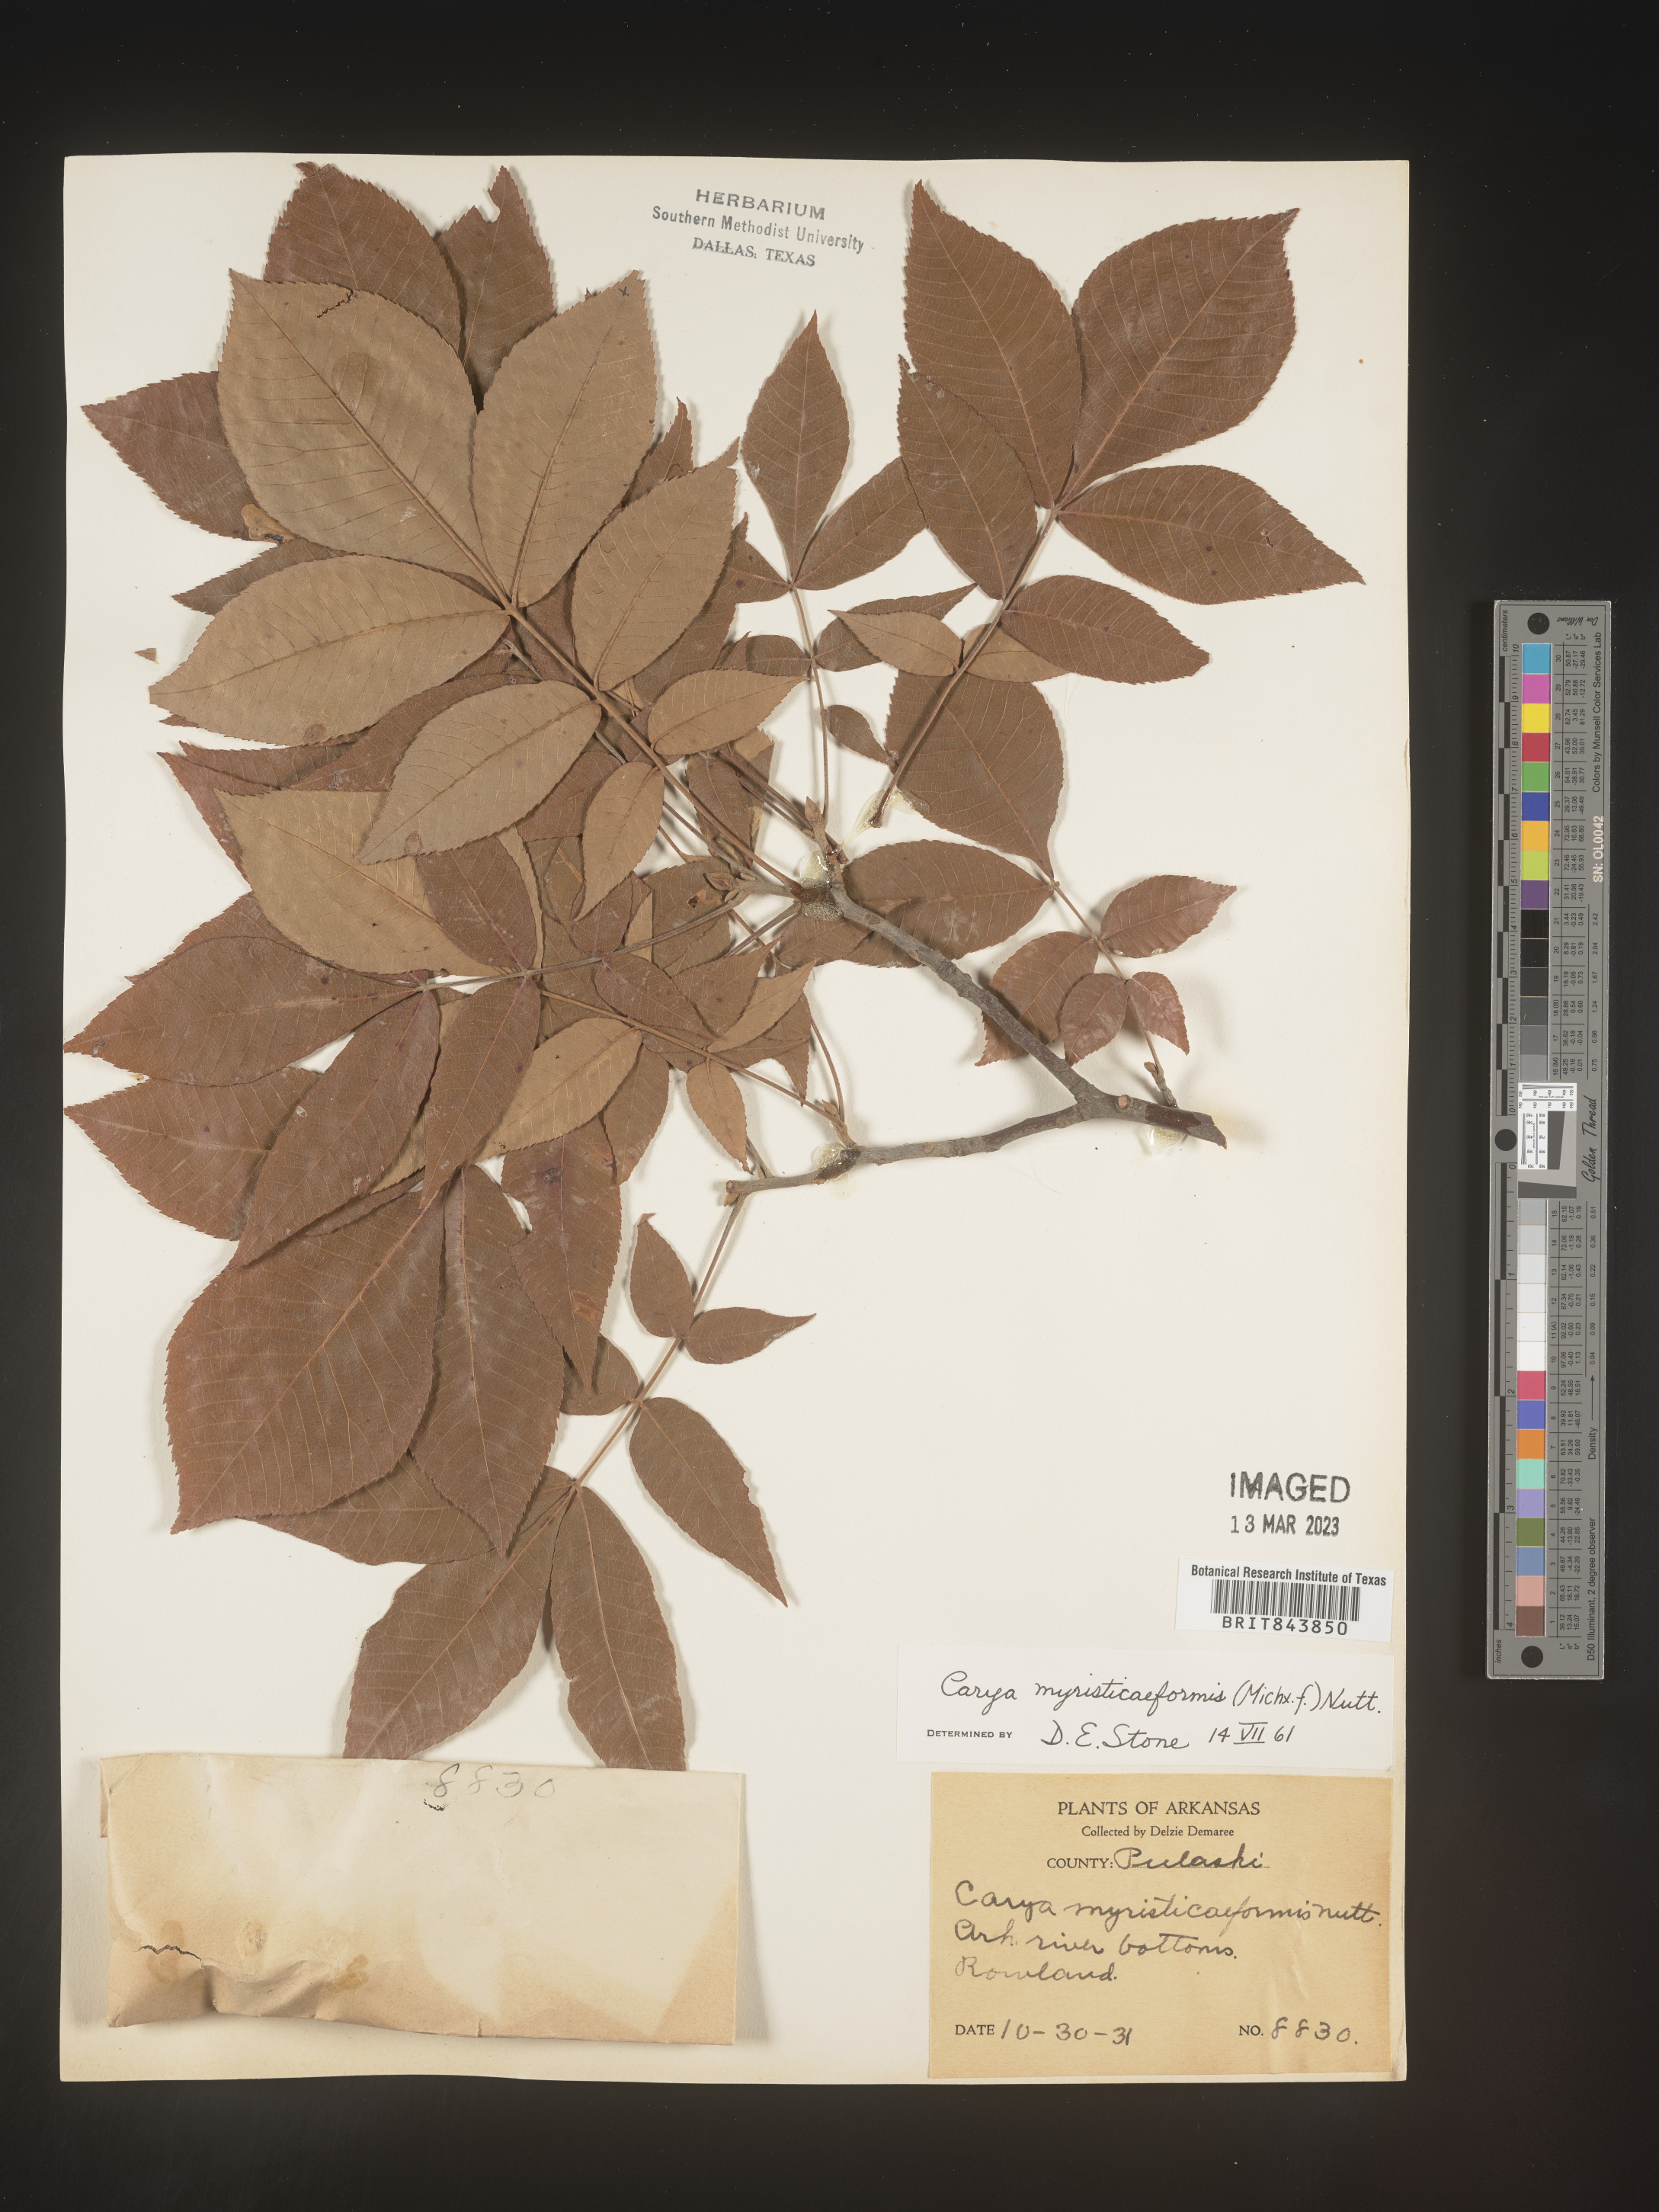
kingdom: Plantae
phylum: Tracheophyta
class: Magnoliopsida
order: Fagales
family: Juglandaceae
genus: Carya
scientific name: Carya myristiciformis
